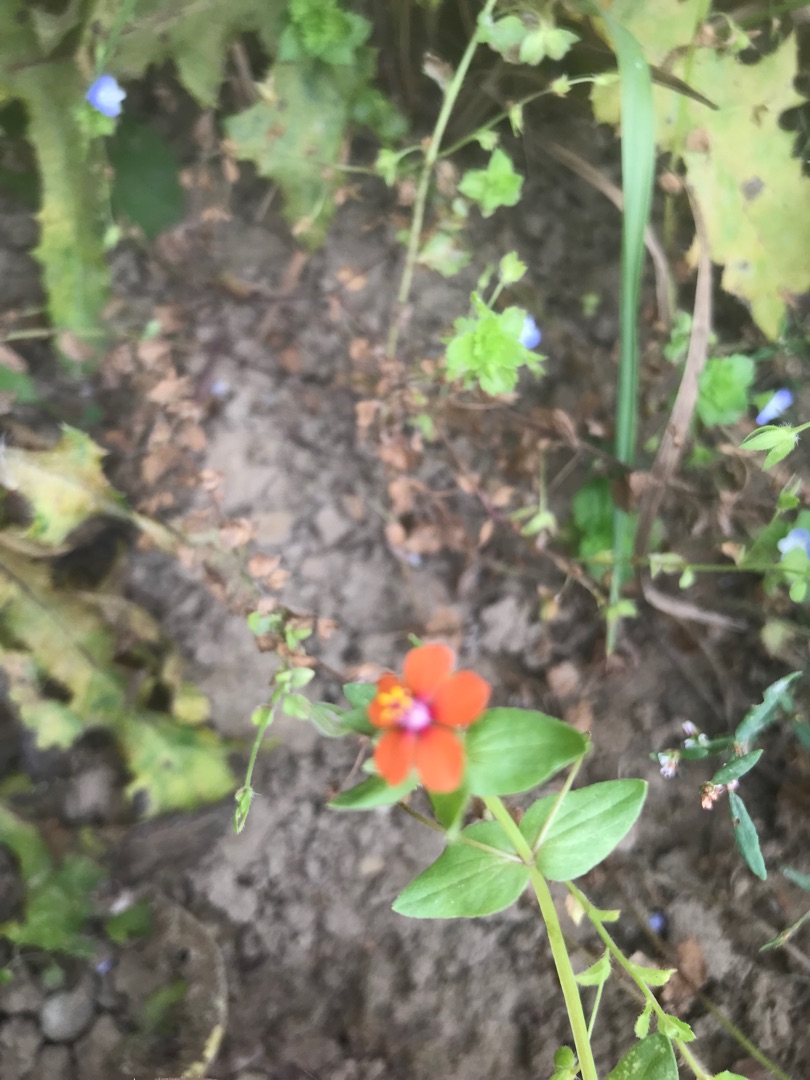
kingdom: Plantae
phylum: Tracheophyta
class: Magnoliopsida
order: Ericales
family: Primulaceae
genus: Lysimachia
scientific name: Lysimachia arvensis
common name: Rød arve
